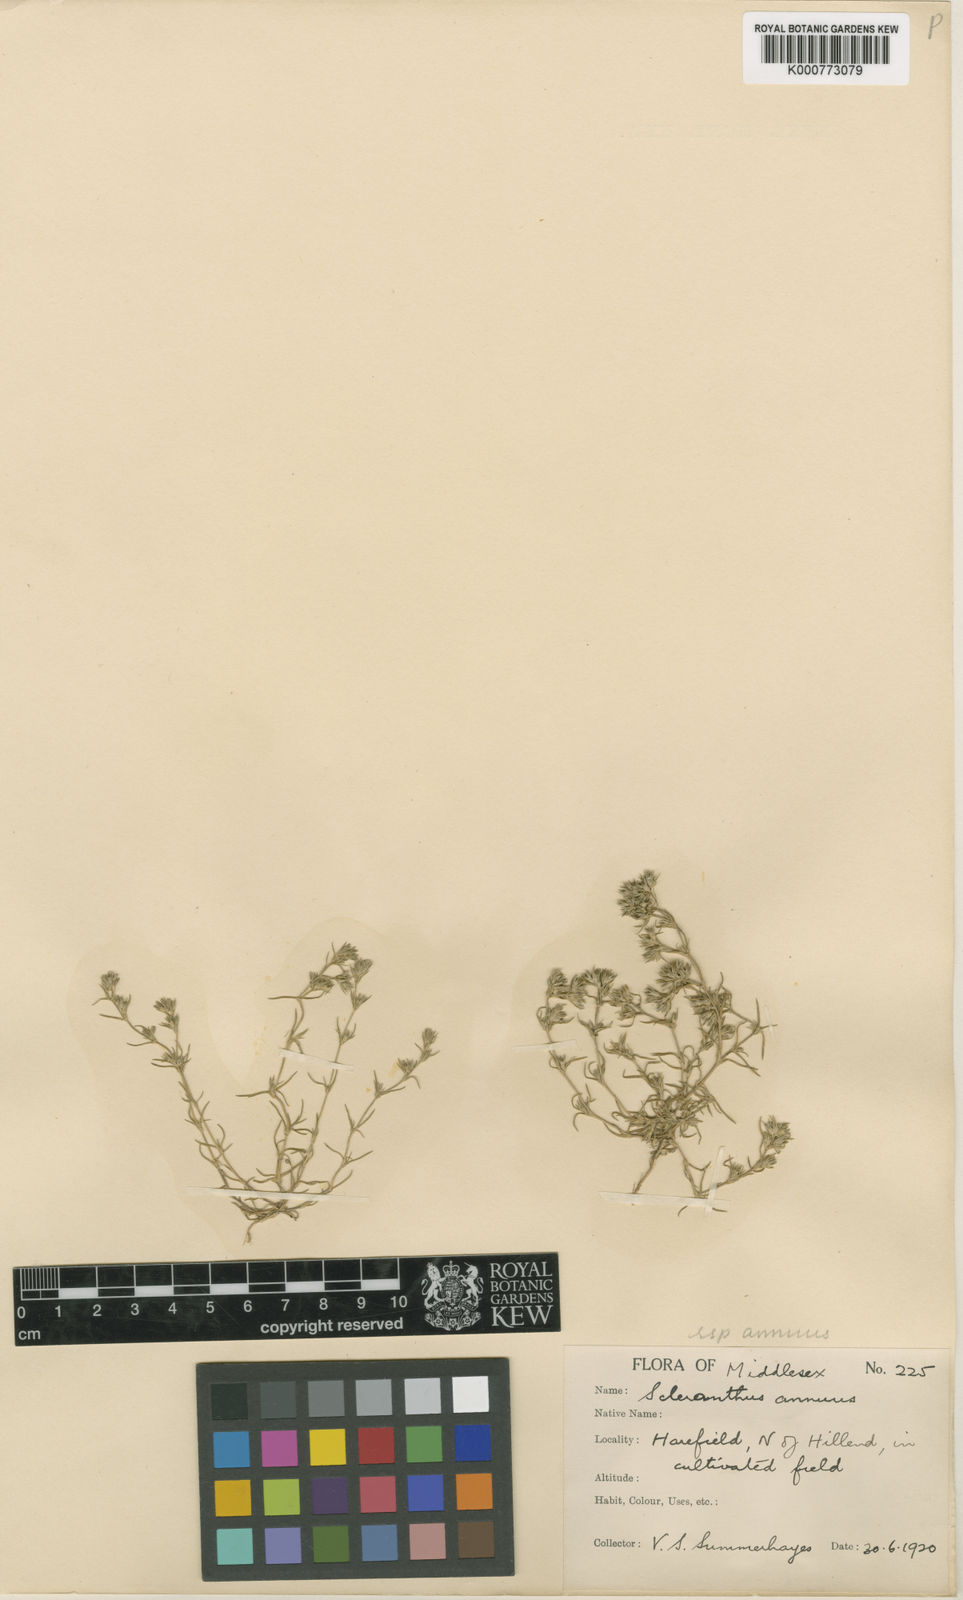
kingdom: Plantae
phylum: Tracheophyta
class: Magnoliopsida
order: Caryophyllales
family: Caryophyllaceae
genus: Scleranthus
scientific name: Scleranthus annuus
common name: Annual knawel
